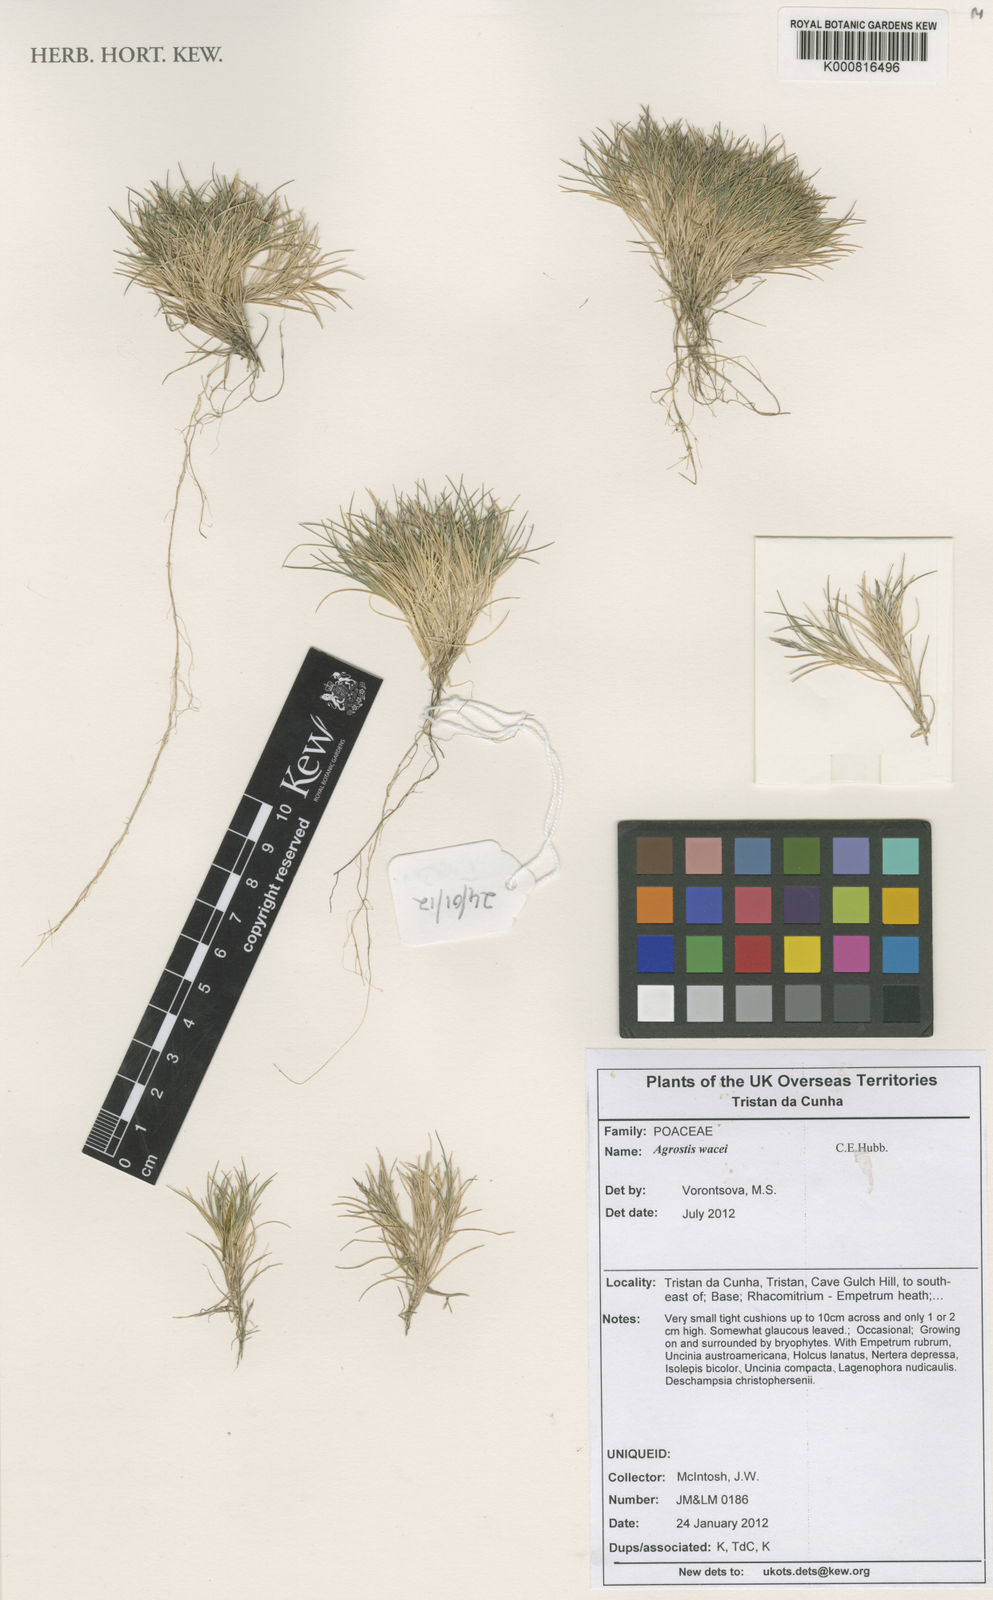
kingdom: Plantae
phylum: Tracheophyta
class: Liliopsida
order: Poales
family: Poaceae
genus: Agrostis
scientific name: Agrostis wacei
